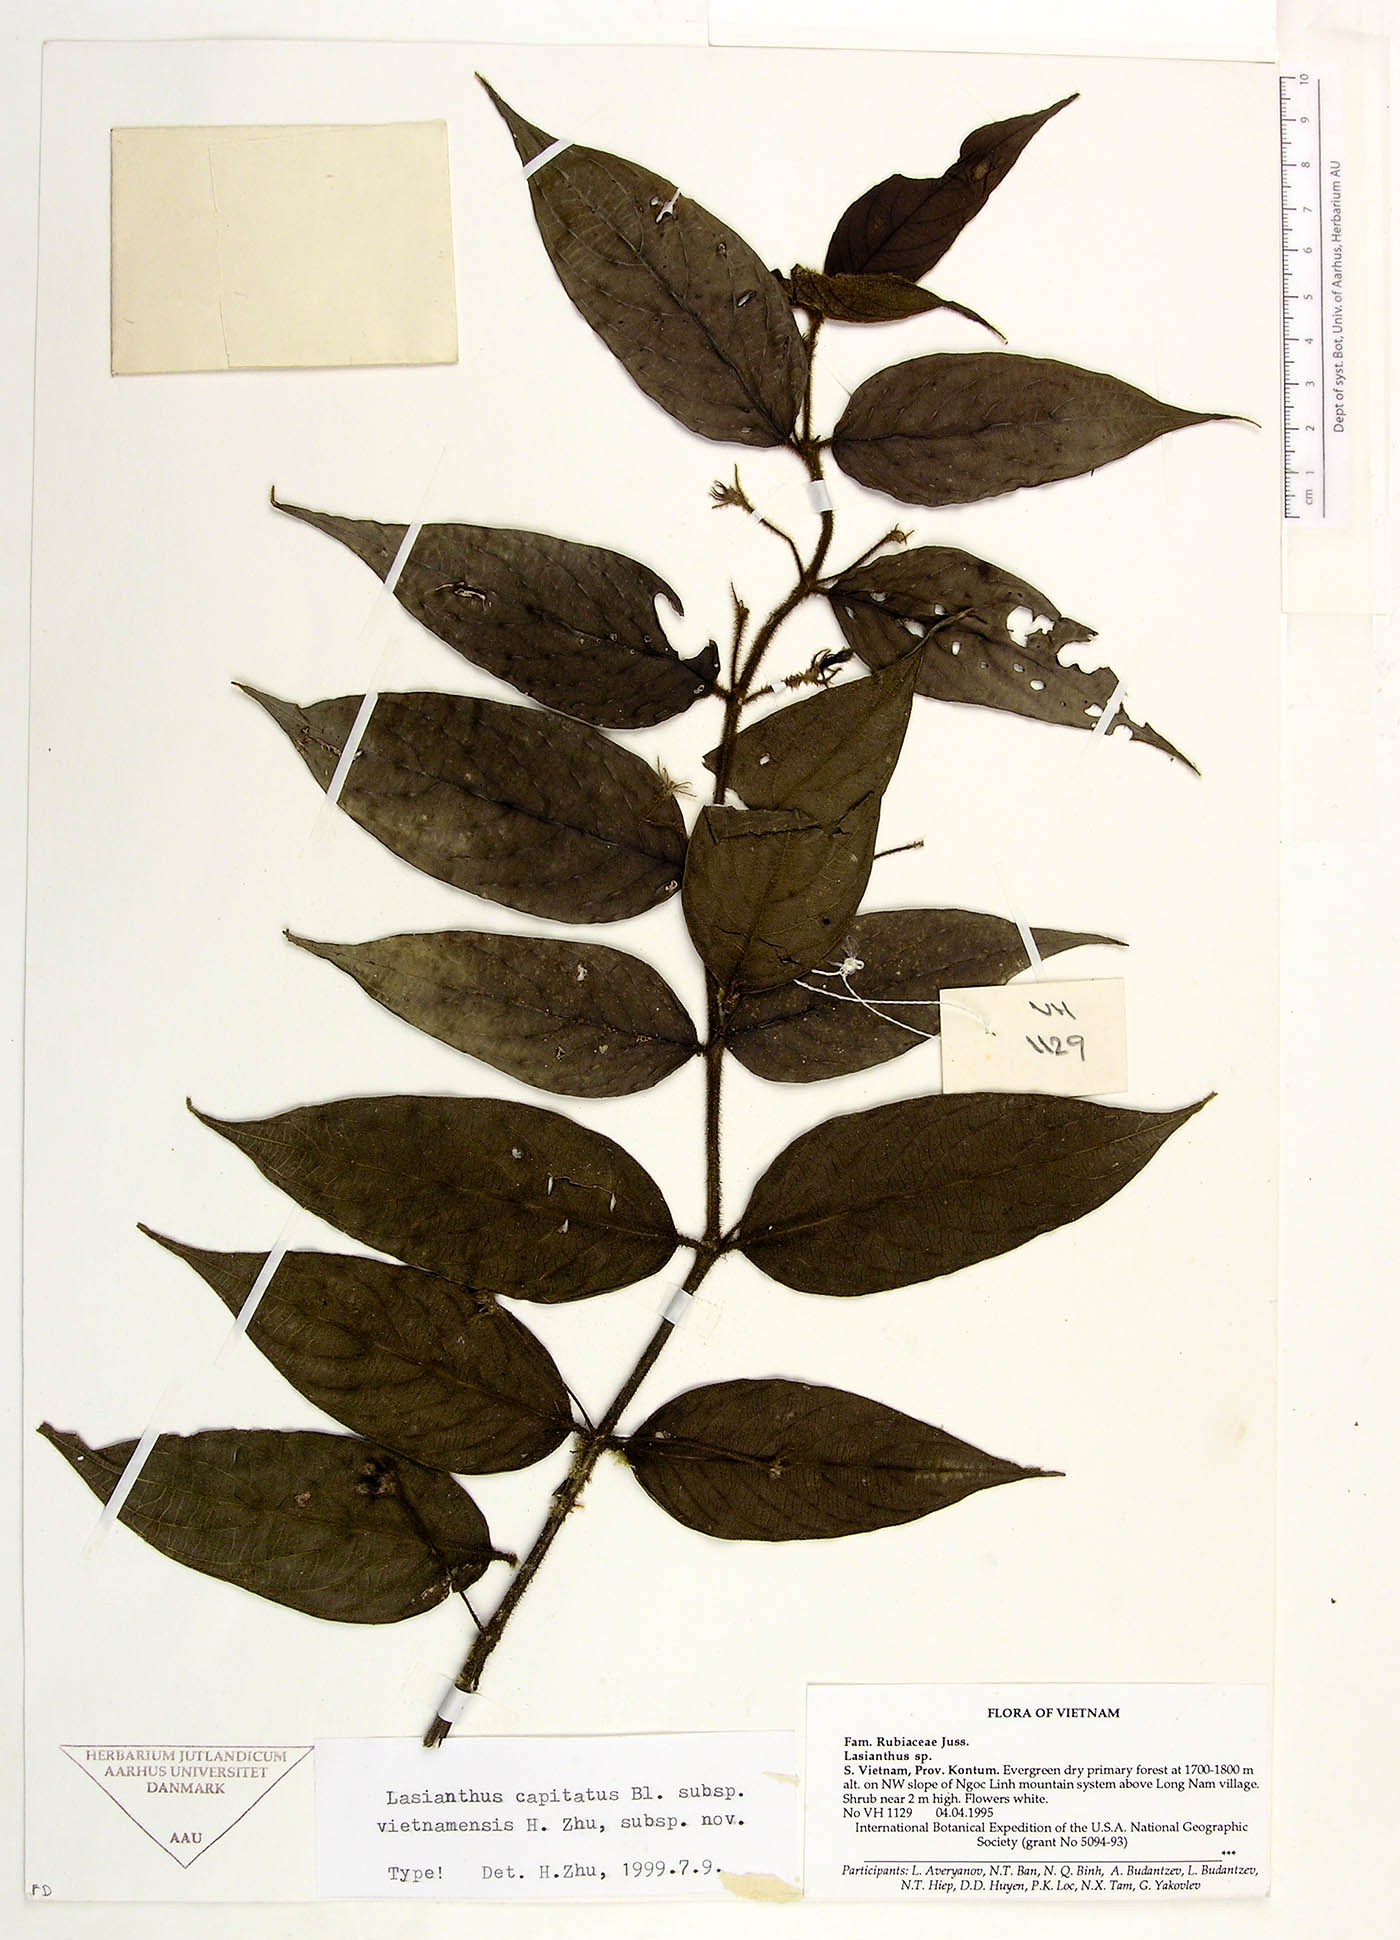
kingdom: Plantae
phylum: Tracheophyta
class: Magnoliopsida
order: Gentianales
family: Rubiaceae
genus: Lasianthus
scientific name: Lasianthus capitatus
